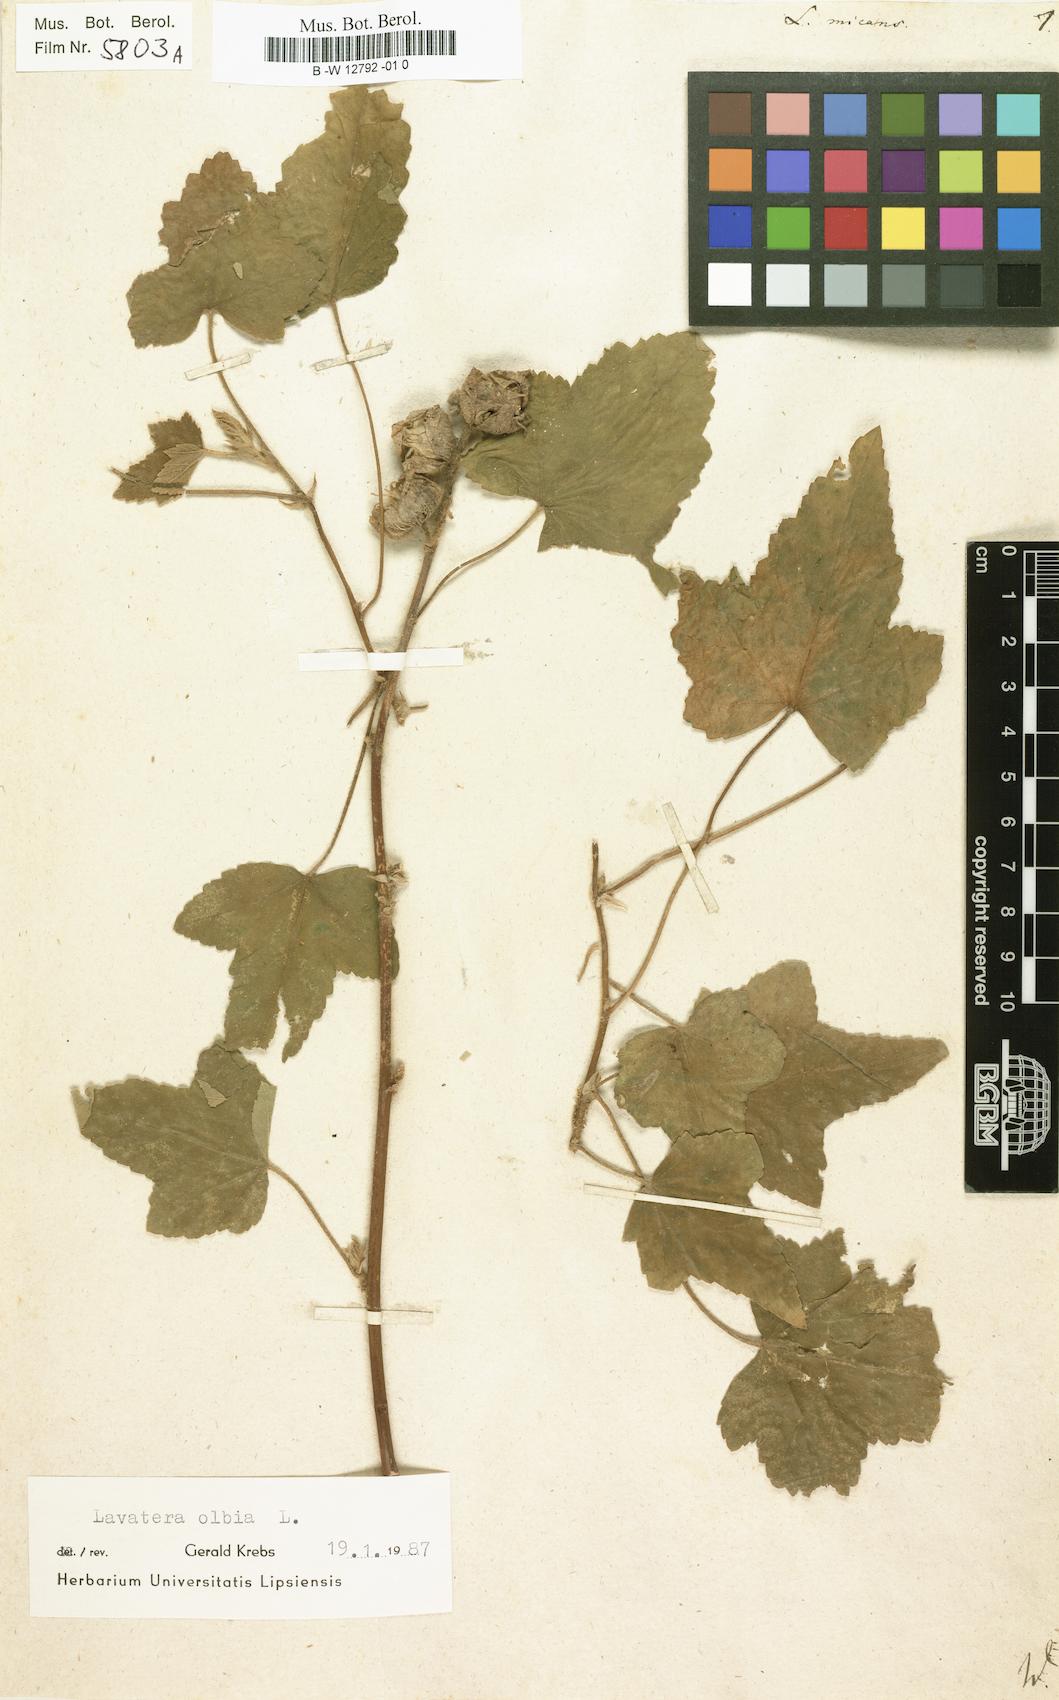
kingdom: Plantae
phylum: Tracheophyta
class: Magnoliopsida
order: Malvales
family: Malvaceae
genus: Malva
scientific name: Malva subovata
